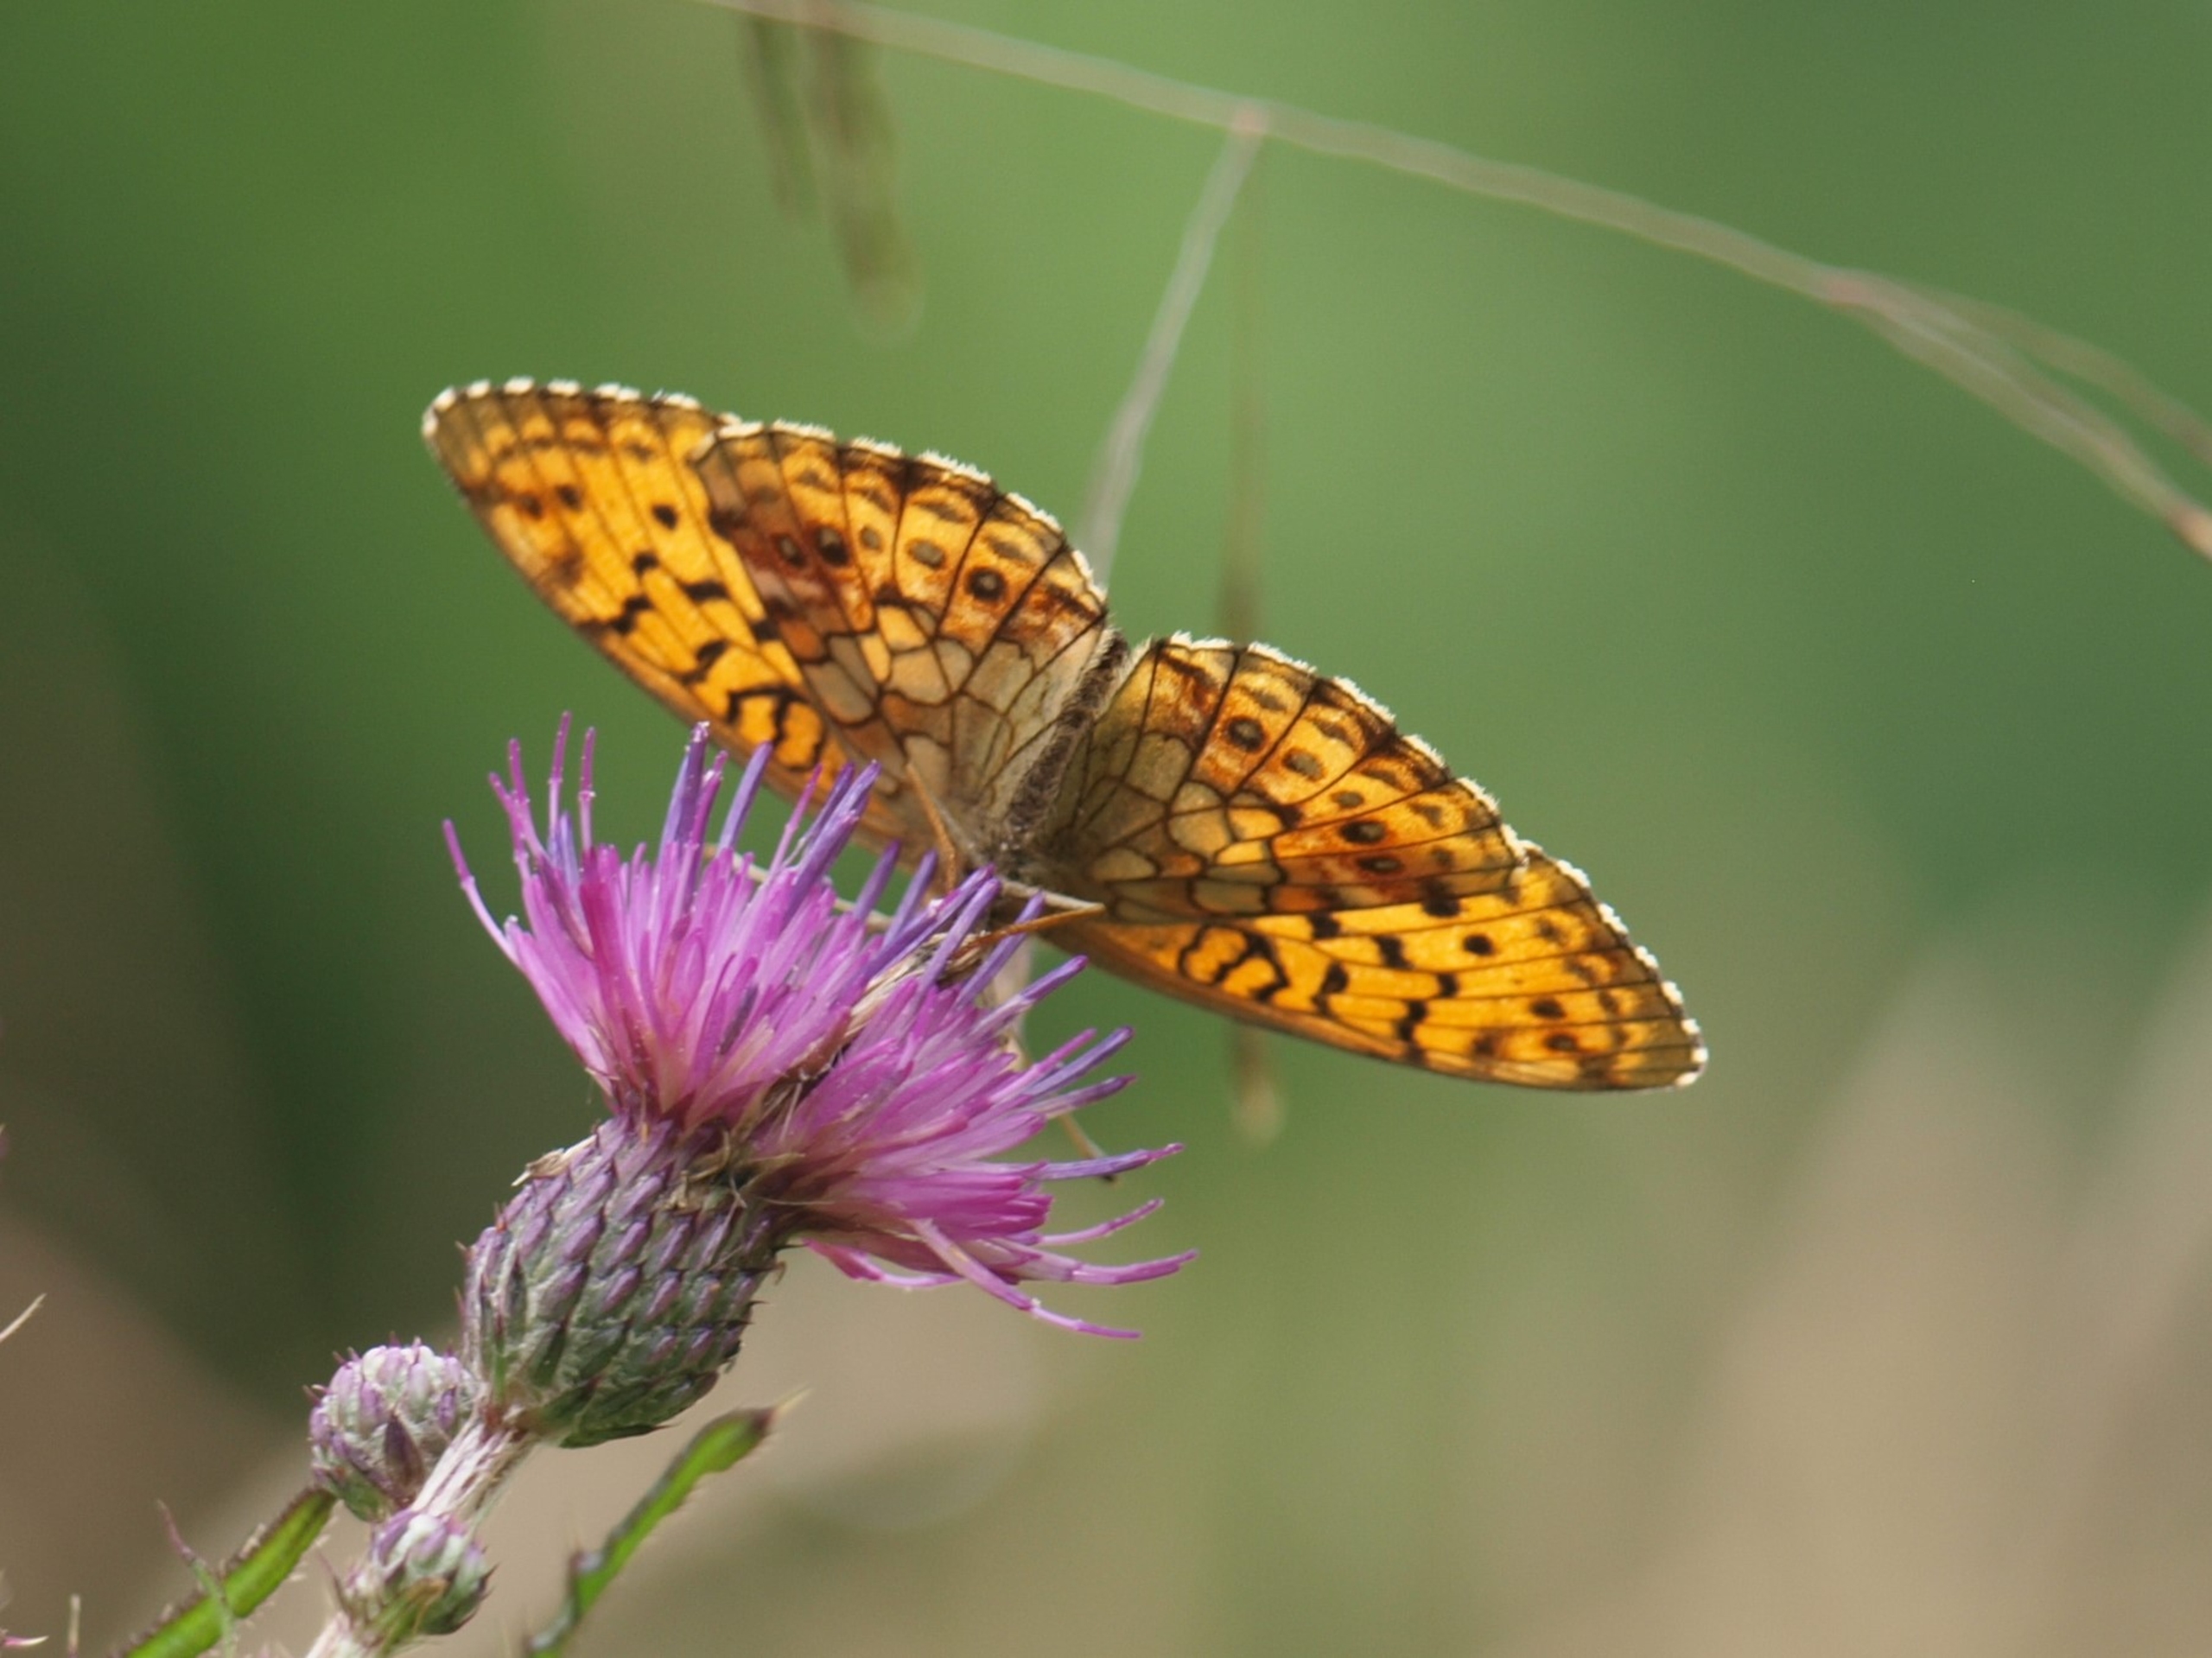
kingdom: Animalia
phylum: Arthropoda
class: Insecta
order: Lepidoptera
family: Nymphalidae
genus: Brenthis
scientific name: Brenthis ino
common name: Engperlemorsommerfugl
